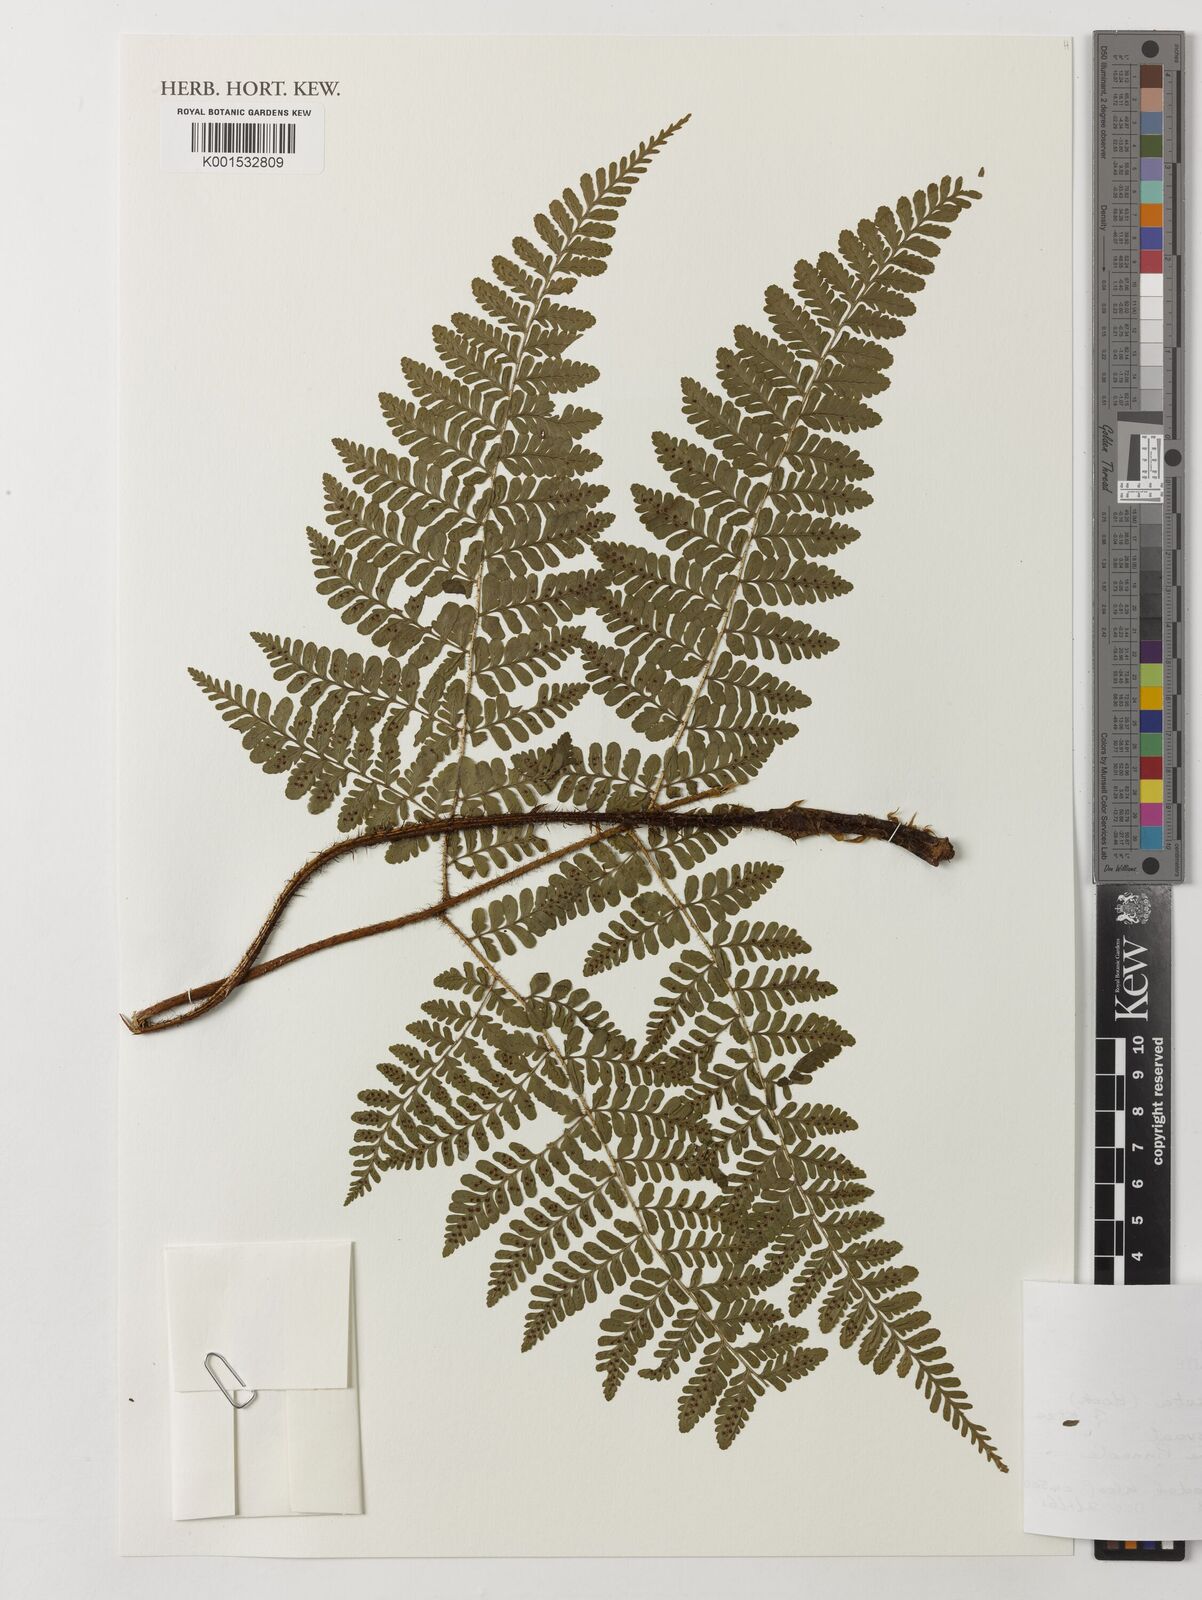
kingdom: Plantae
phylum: Tracheophyta
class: Polypodiopsida
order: Polypodiales
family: Dryopteridaceae
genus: Dryopteris
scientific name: Dryopteris squamiseta
